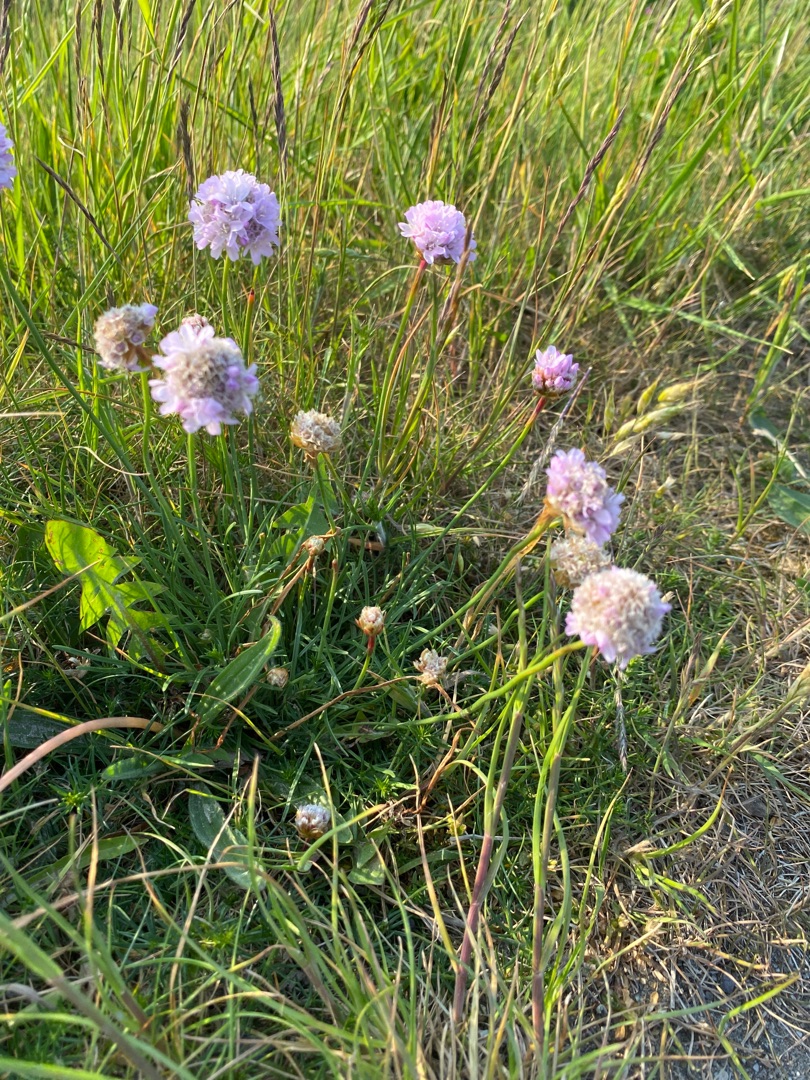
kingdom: Plantae
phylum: Tracheophyta
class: Magnoliopsida
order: Caryophyllales
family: Plumbaginaceae
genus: Armeria
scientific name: Armeria maritima
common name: Engelskgræs
